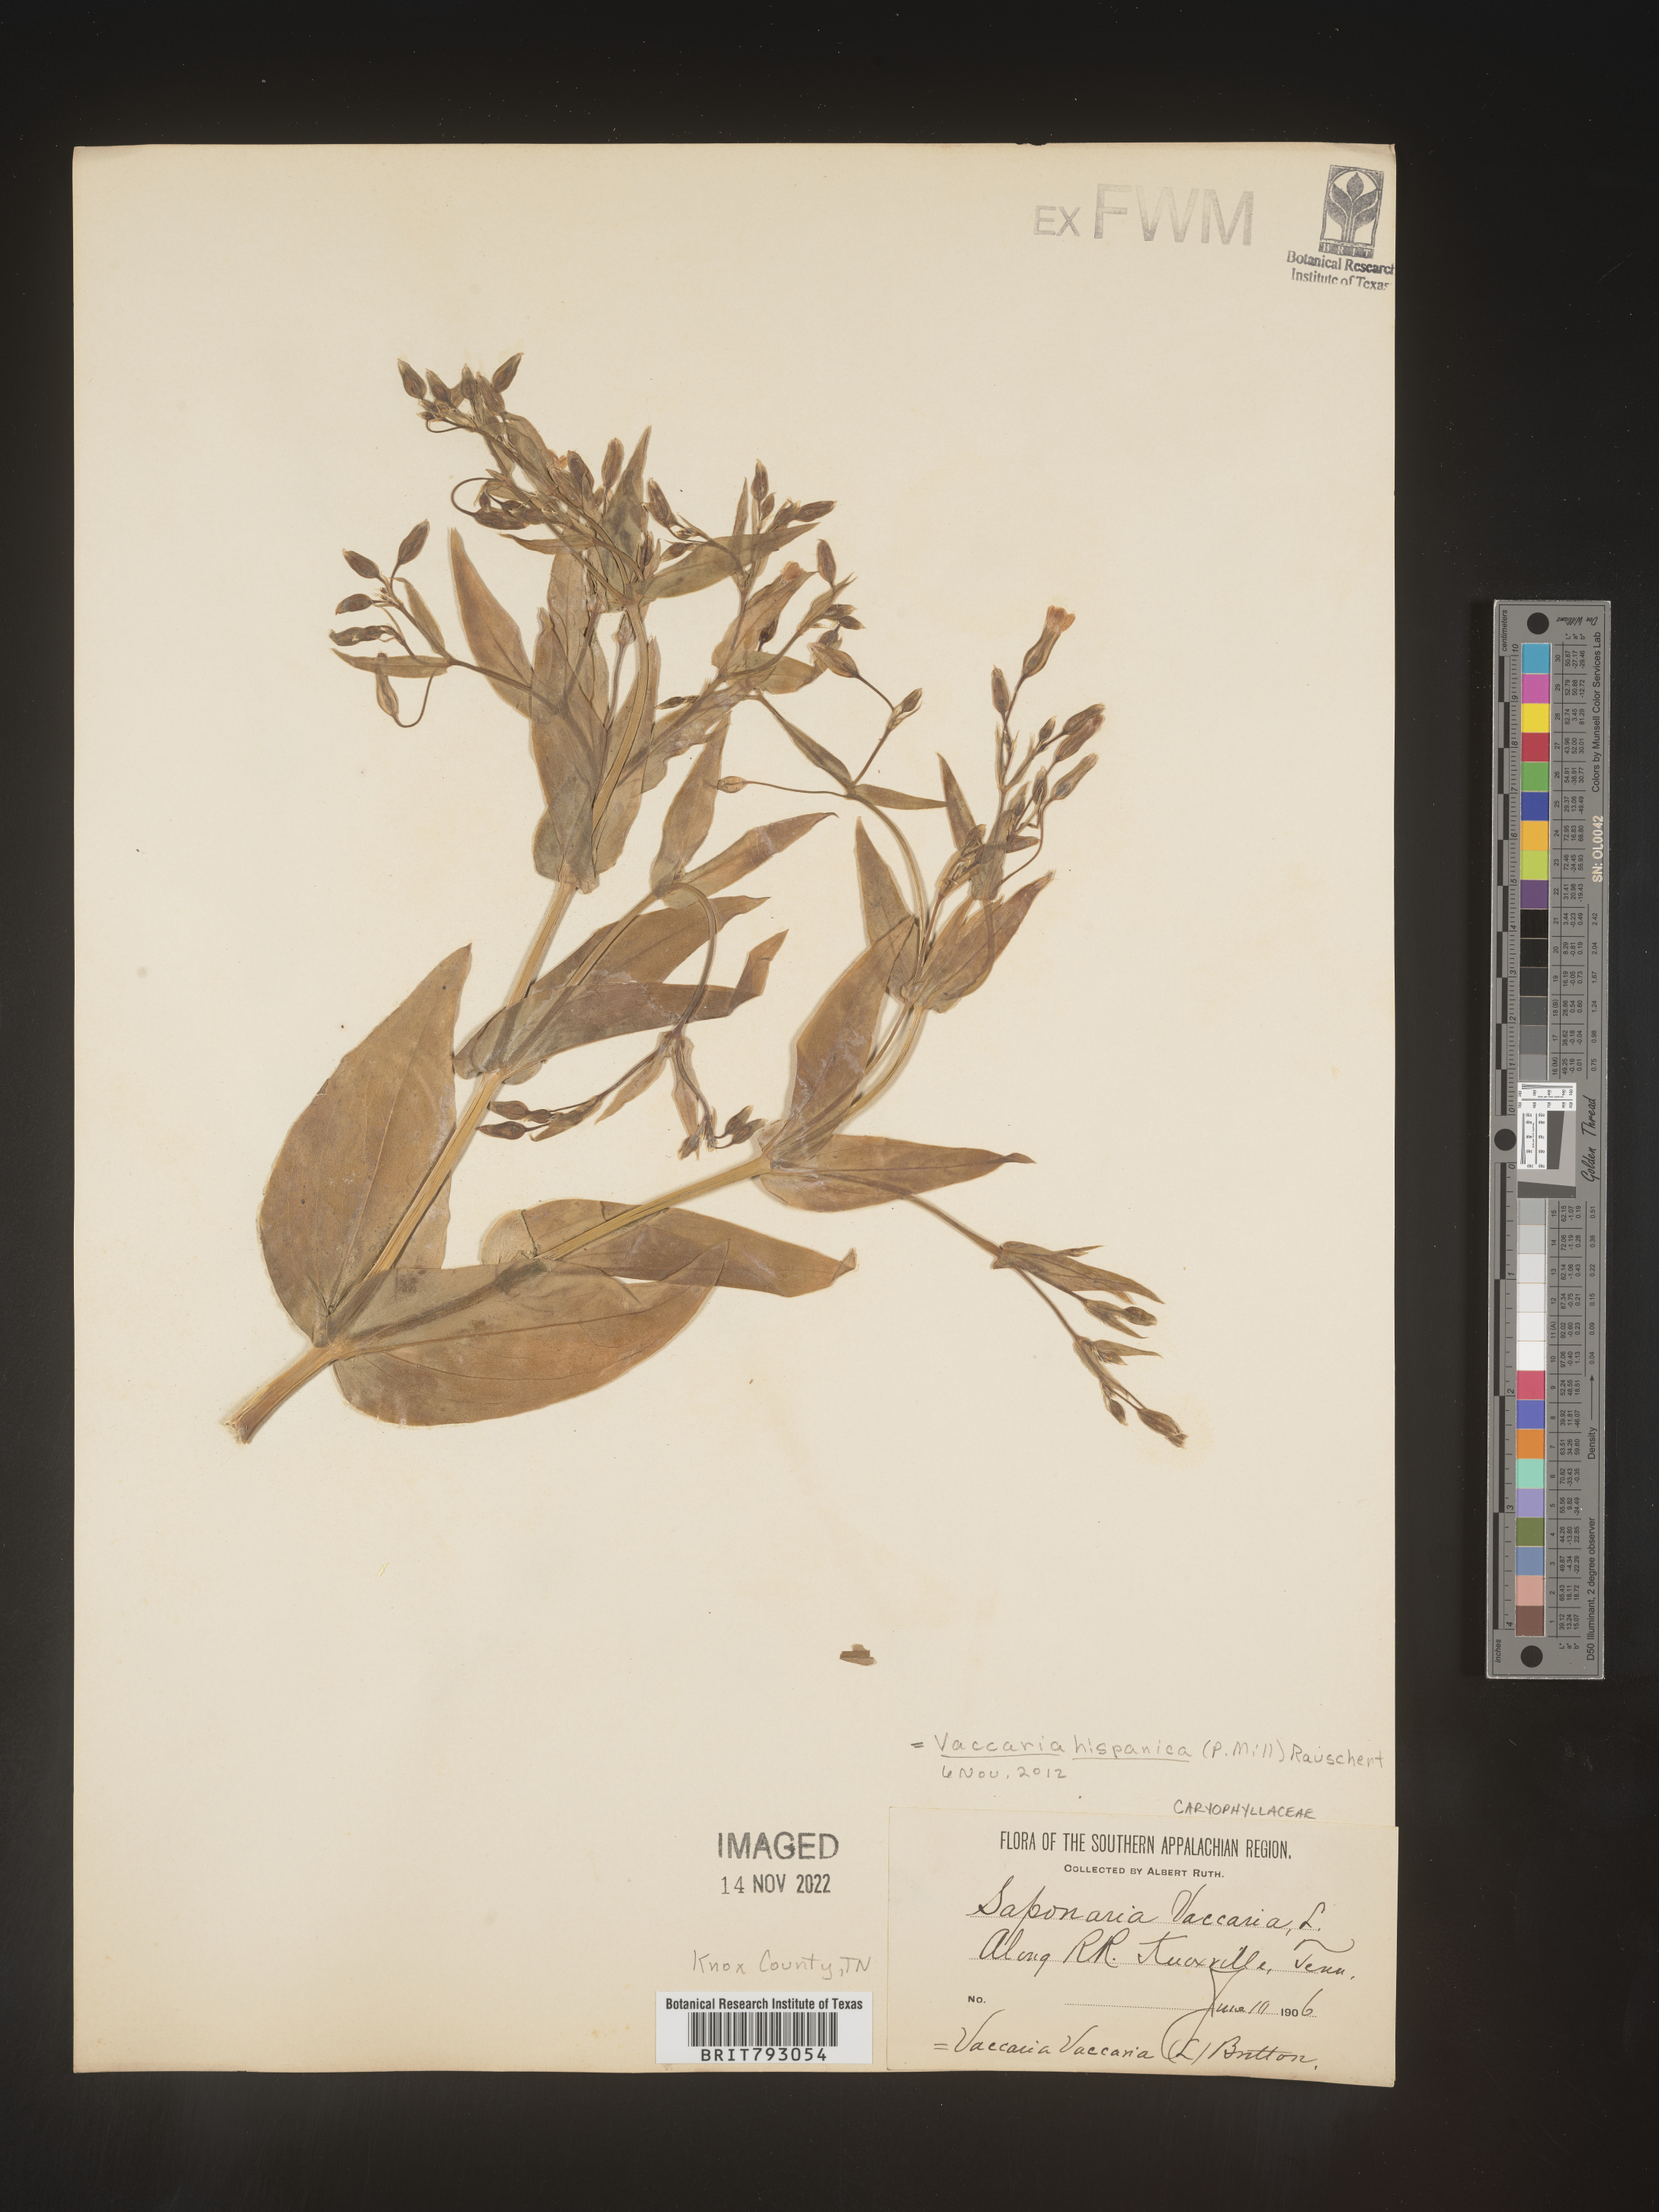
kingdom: Plantae
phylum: Tracheophyta
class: Magnoliopsida
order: Caryophyllales
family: Caryophyllaceae
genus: Saponaria
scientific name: Saponaria
